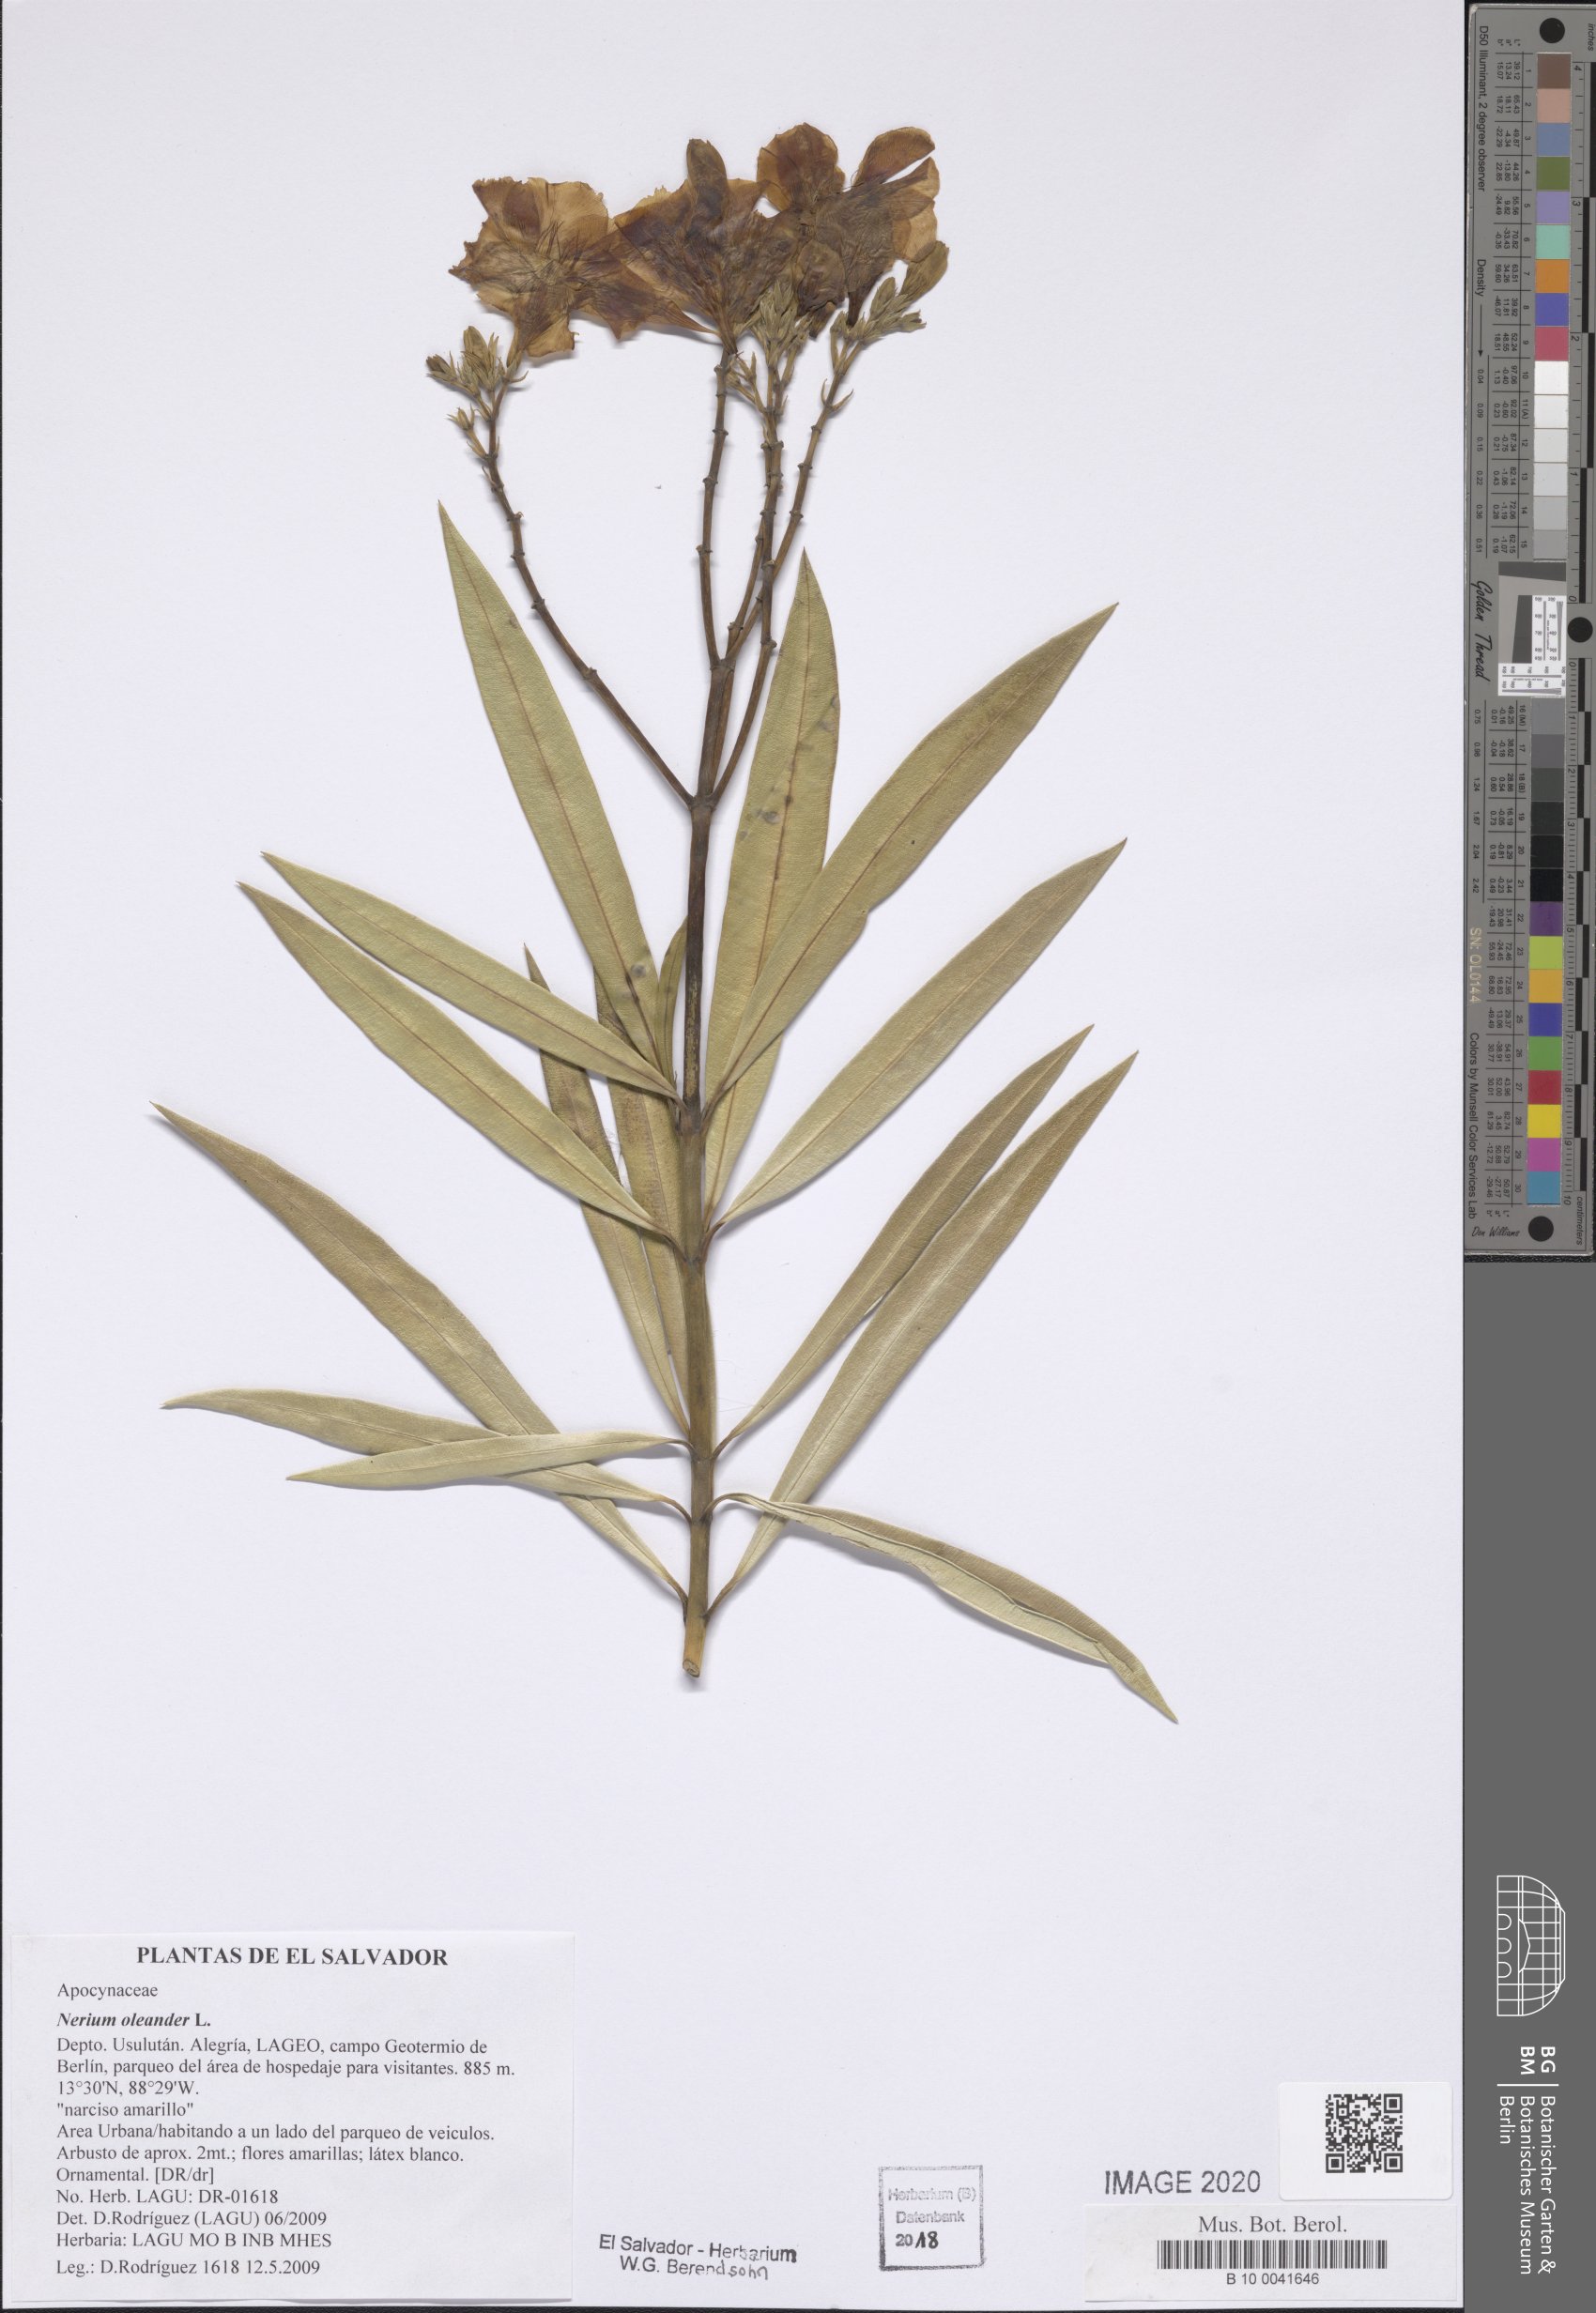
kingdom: Plantae
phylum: Tracheophyta
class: Magnoliopsida
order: Gentianales
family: Apocynaceae
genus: Nerium
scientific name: Nerium oleander
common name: Oleander
